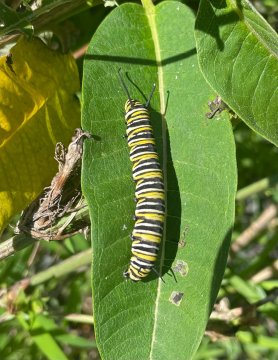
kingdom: Animalia
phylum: Arthropoda
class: Insecta
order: Lepidoptera
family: Nymphalidae
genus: Danaus
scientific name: Danaus plexippus
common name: Monarch
